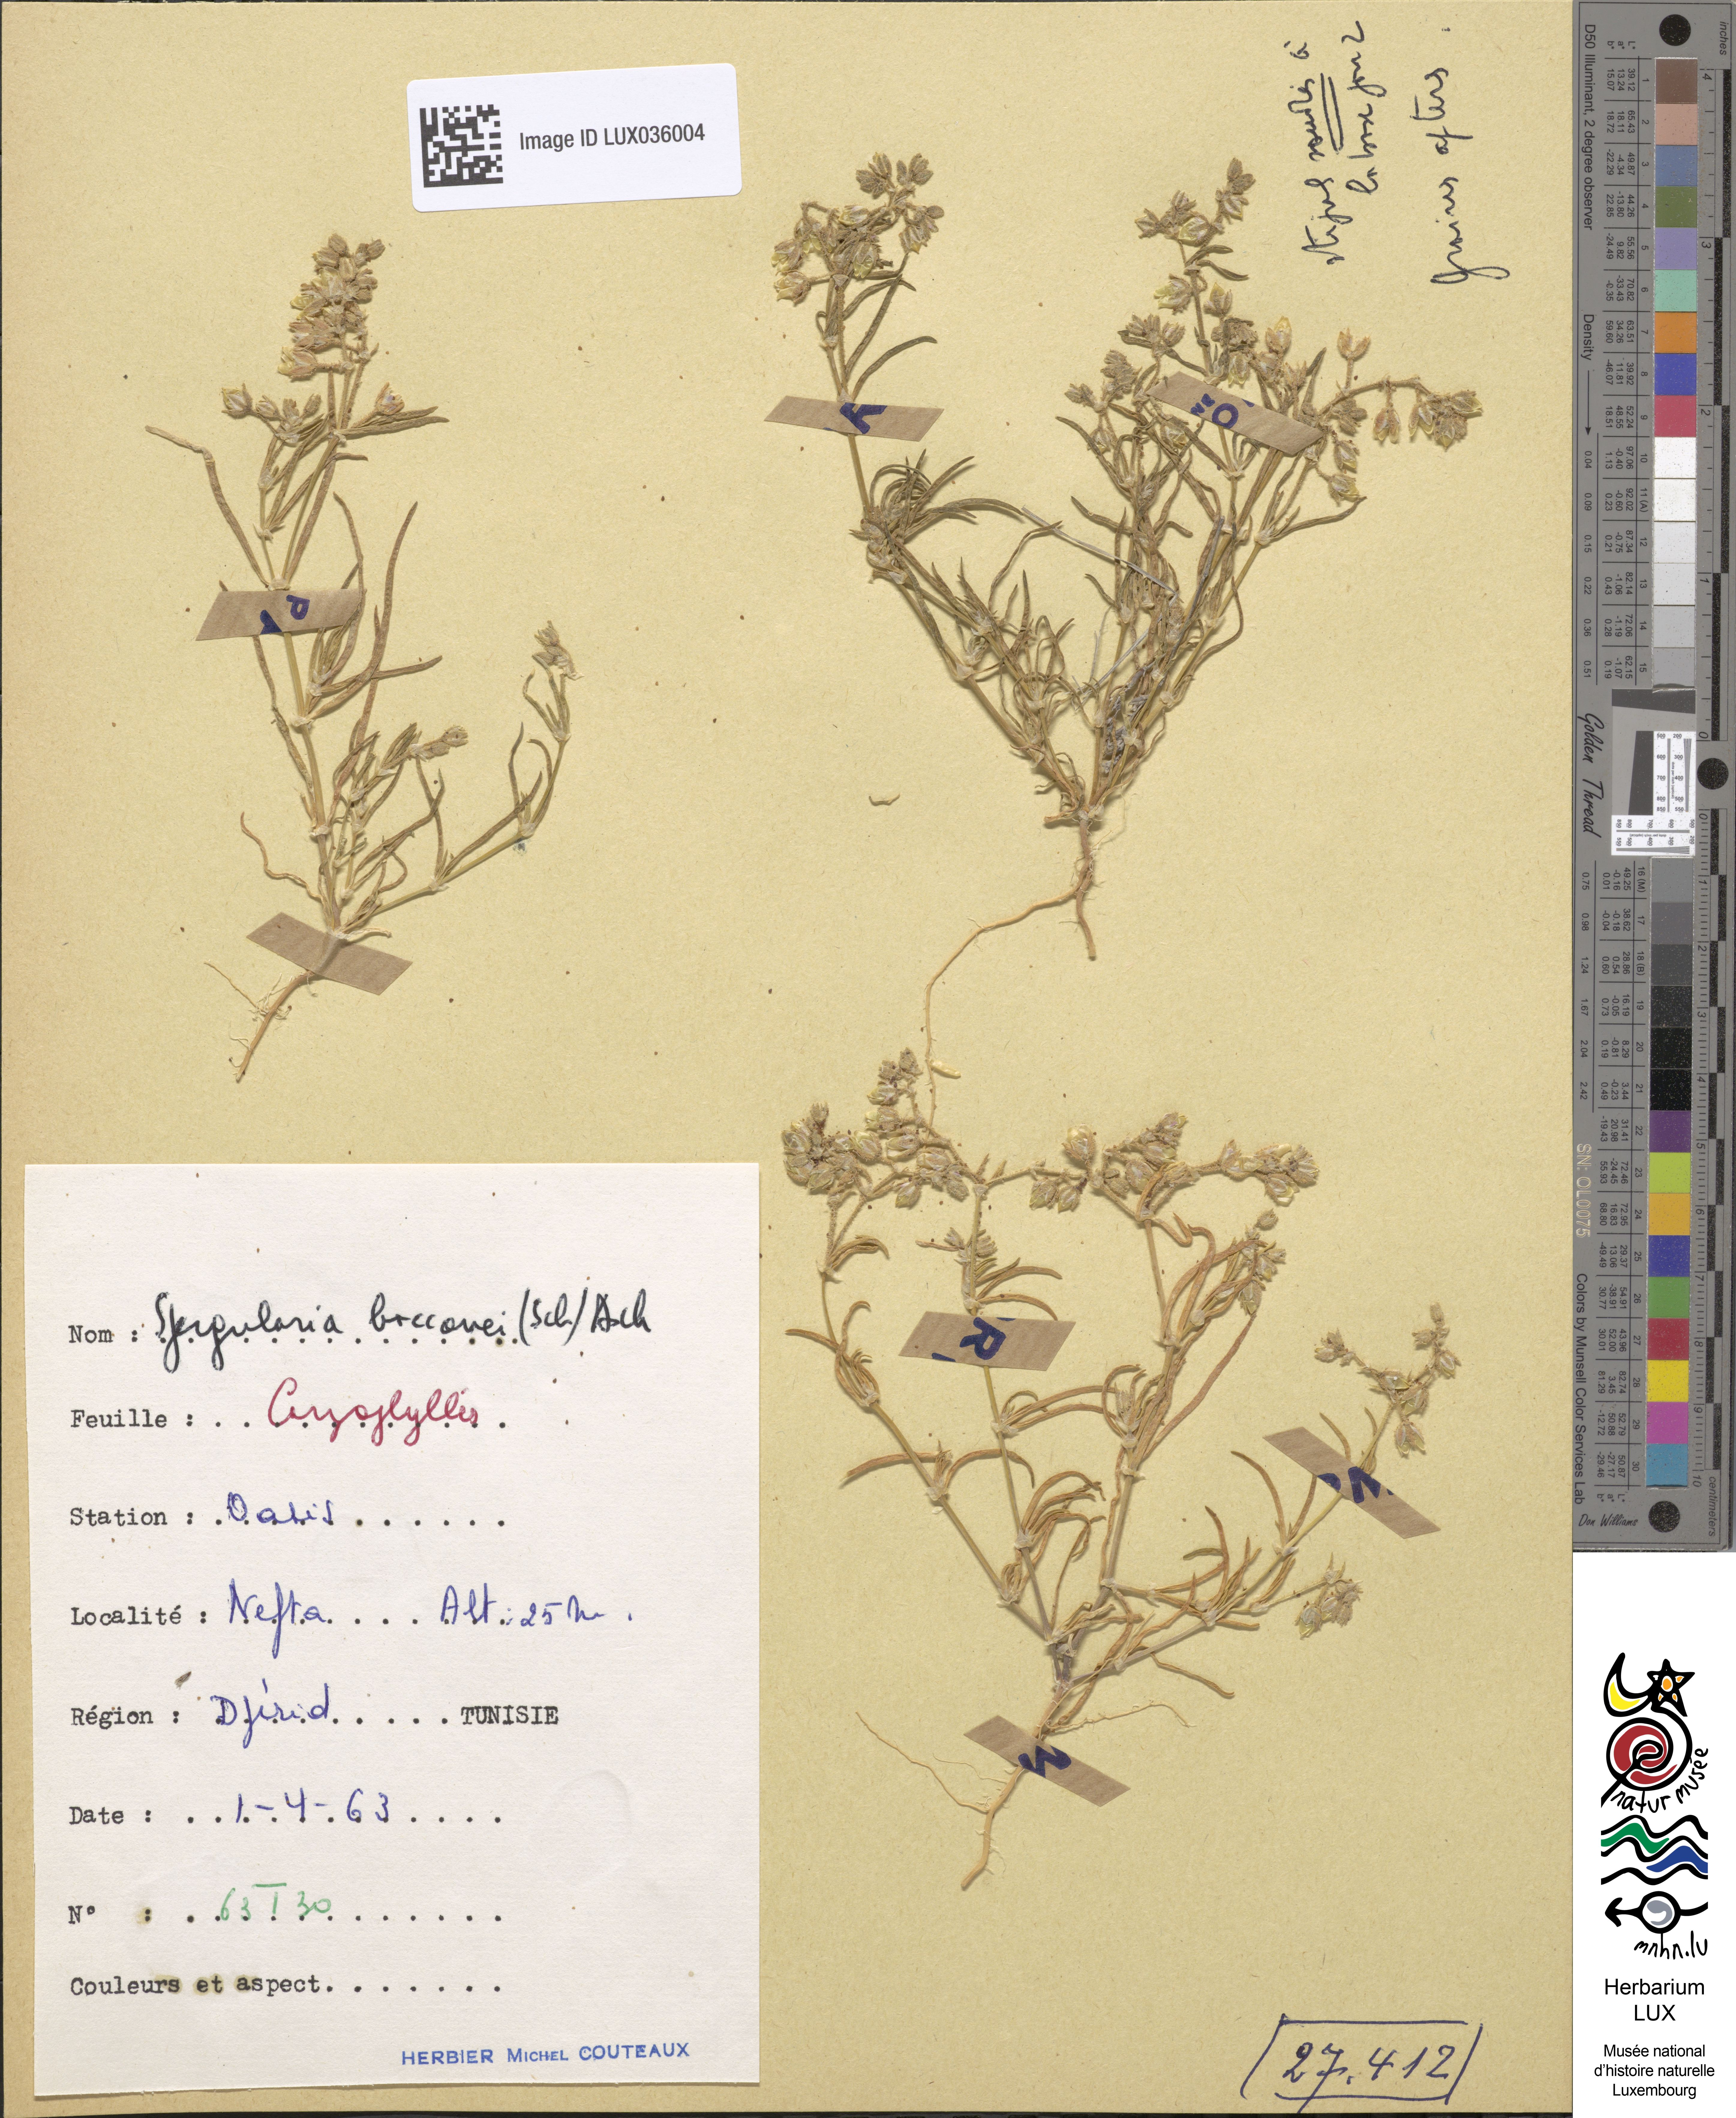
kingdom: Plantae
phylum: Tracheophyta
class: Magnoliopsida
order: Caryophyllales
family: Caryophyllaceae
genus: Spergularia
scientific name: Spergularia bocconei
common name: Greek sea-spurrey
